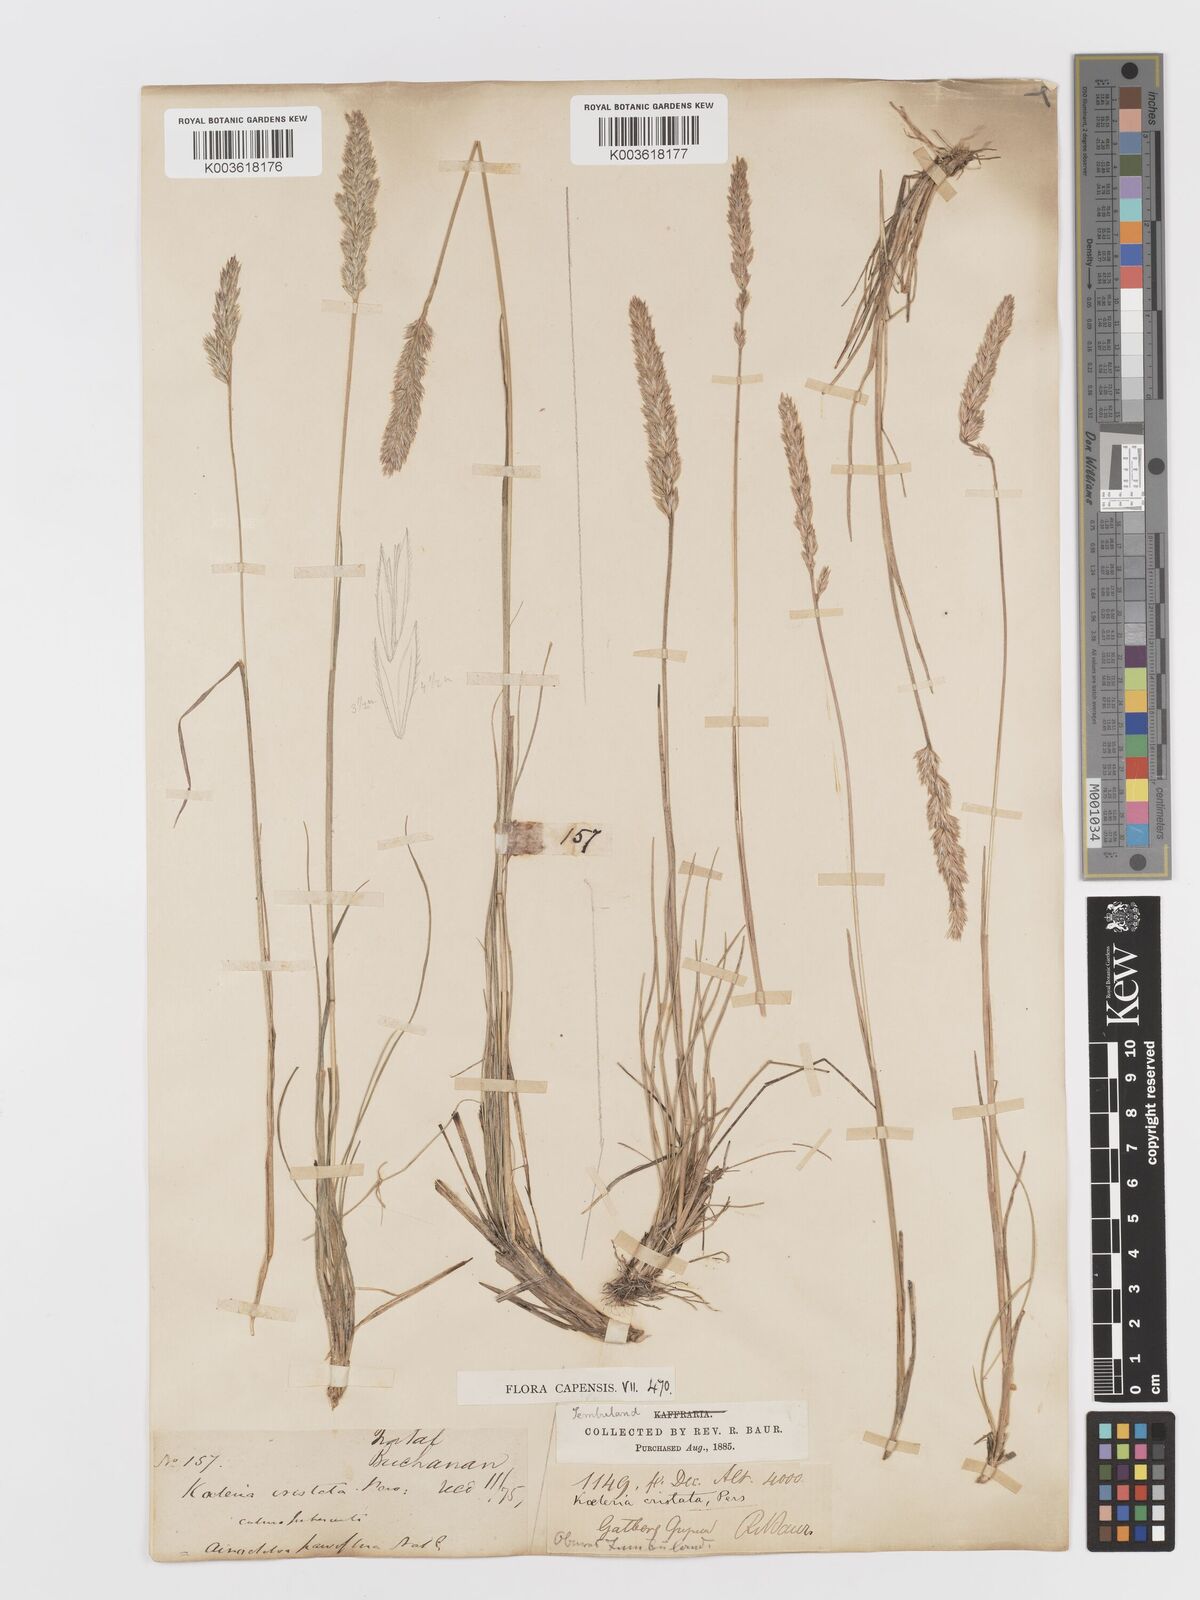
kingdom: Plantae
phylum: Tracheophyta
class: Liliopsida
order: Poales
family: Poaceae
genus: Koeleria
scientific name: Koeleria capensis
